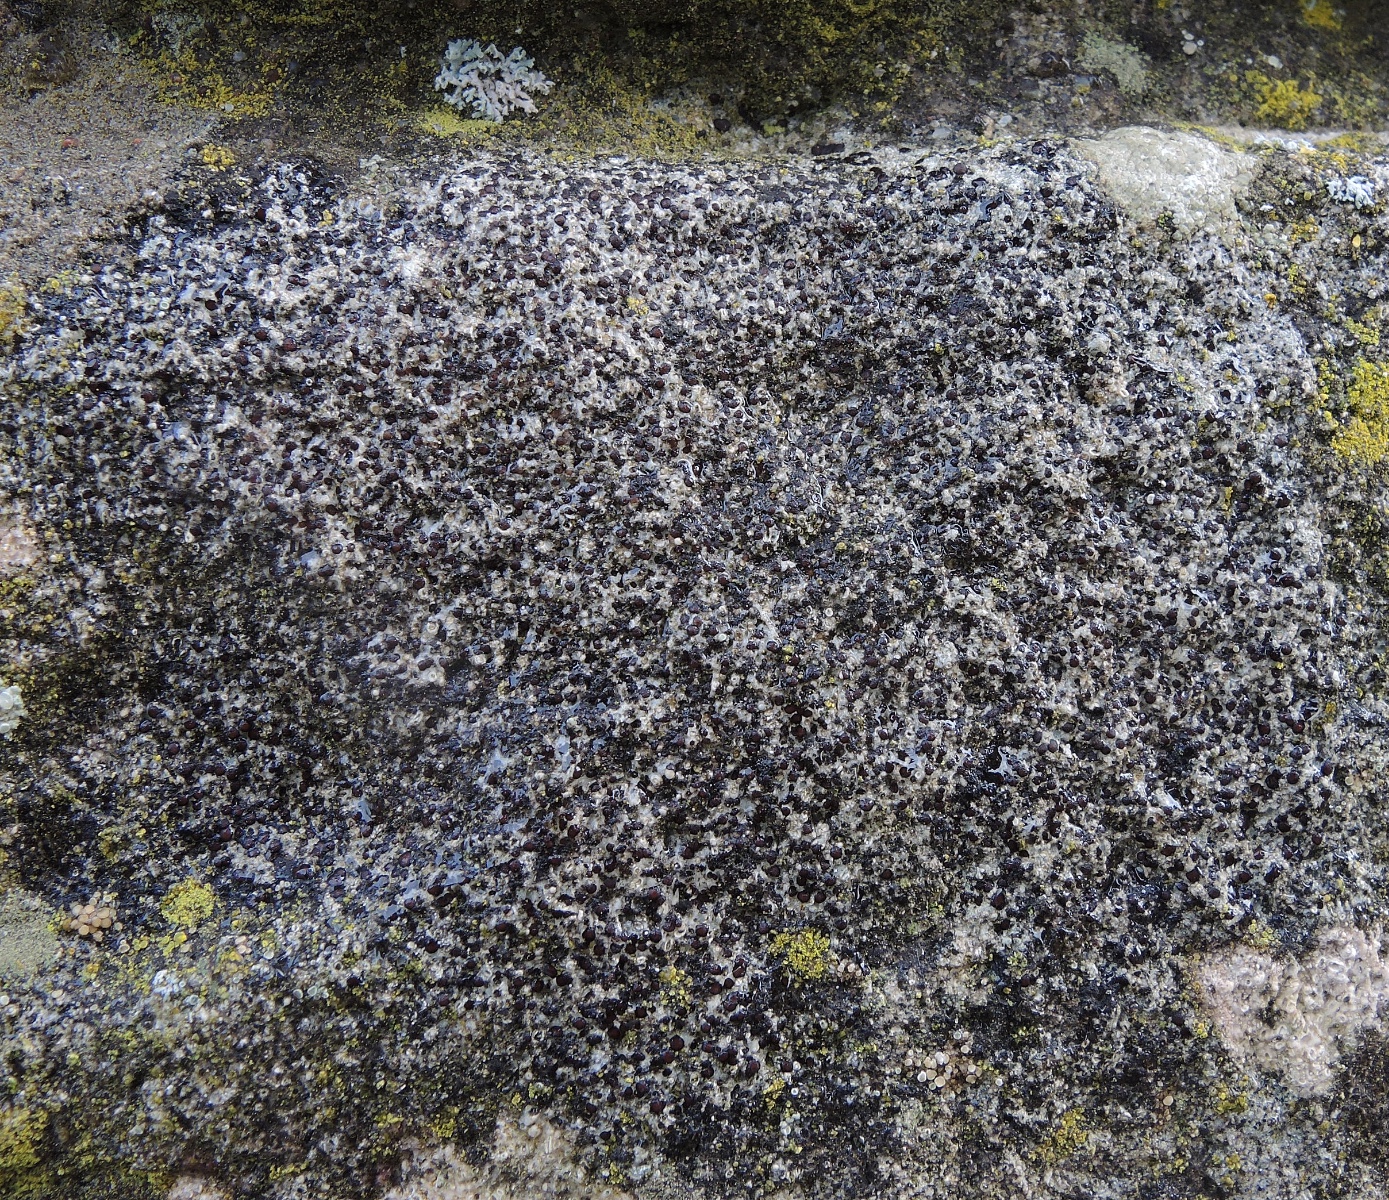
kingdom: Fungi
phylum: Ascomycota
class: Lecanoromycetes
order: Acarosporales
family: Acarosporaceae
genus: Sarcogyne
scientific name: Sarcogyne regularis
